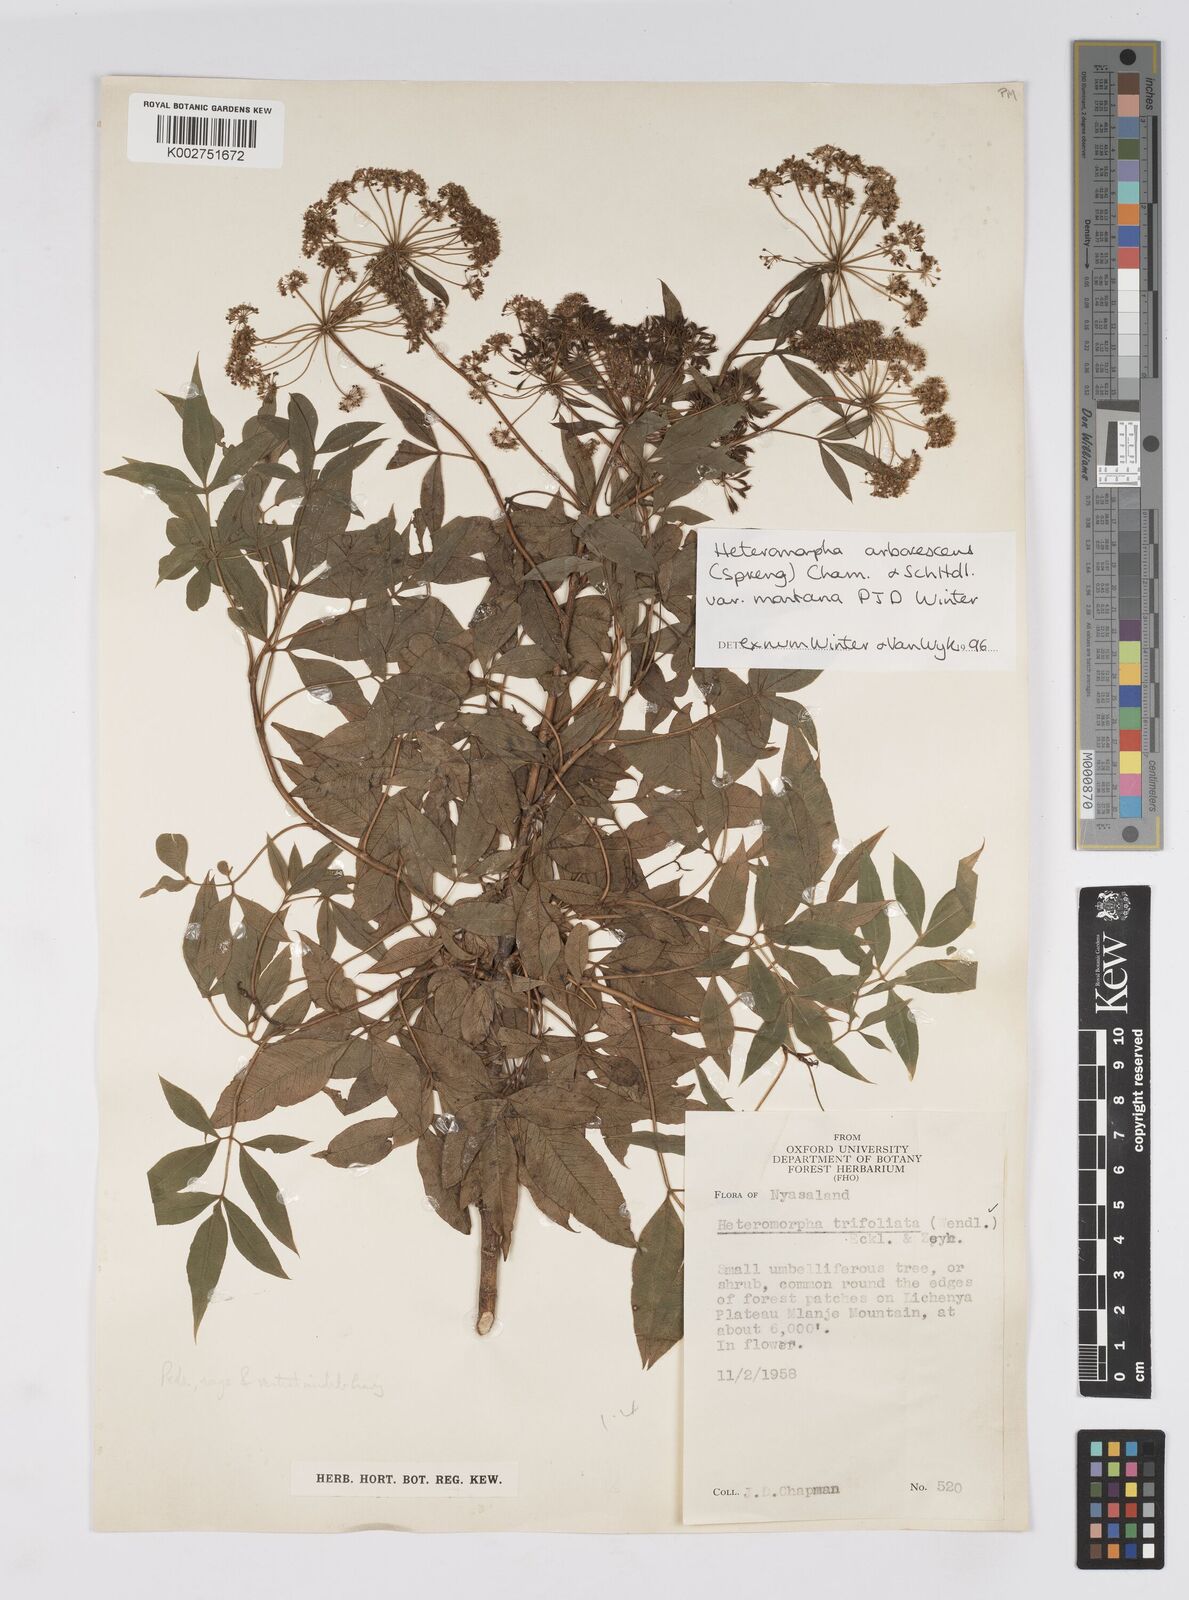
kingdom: Plantae
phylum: Tracheophyta
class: Magnoliopsida
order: Apiales
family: Apiaceae
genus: Heteromorpha
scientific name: Heteromorpha montana
